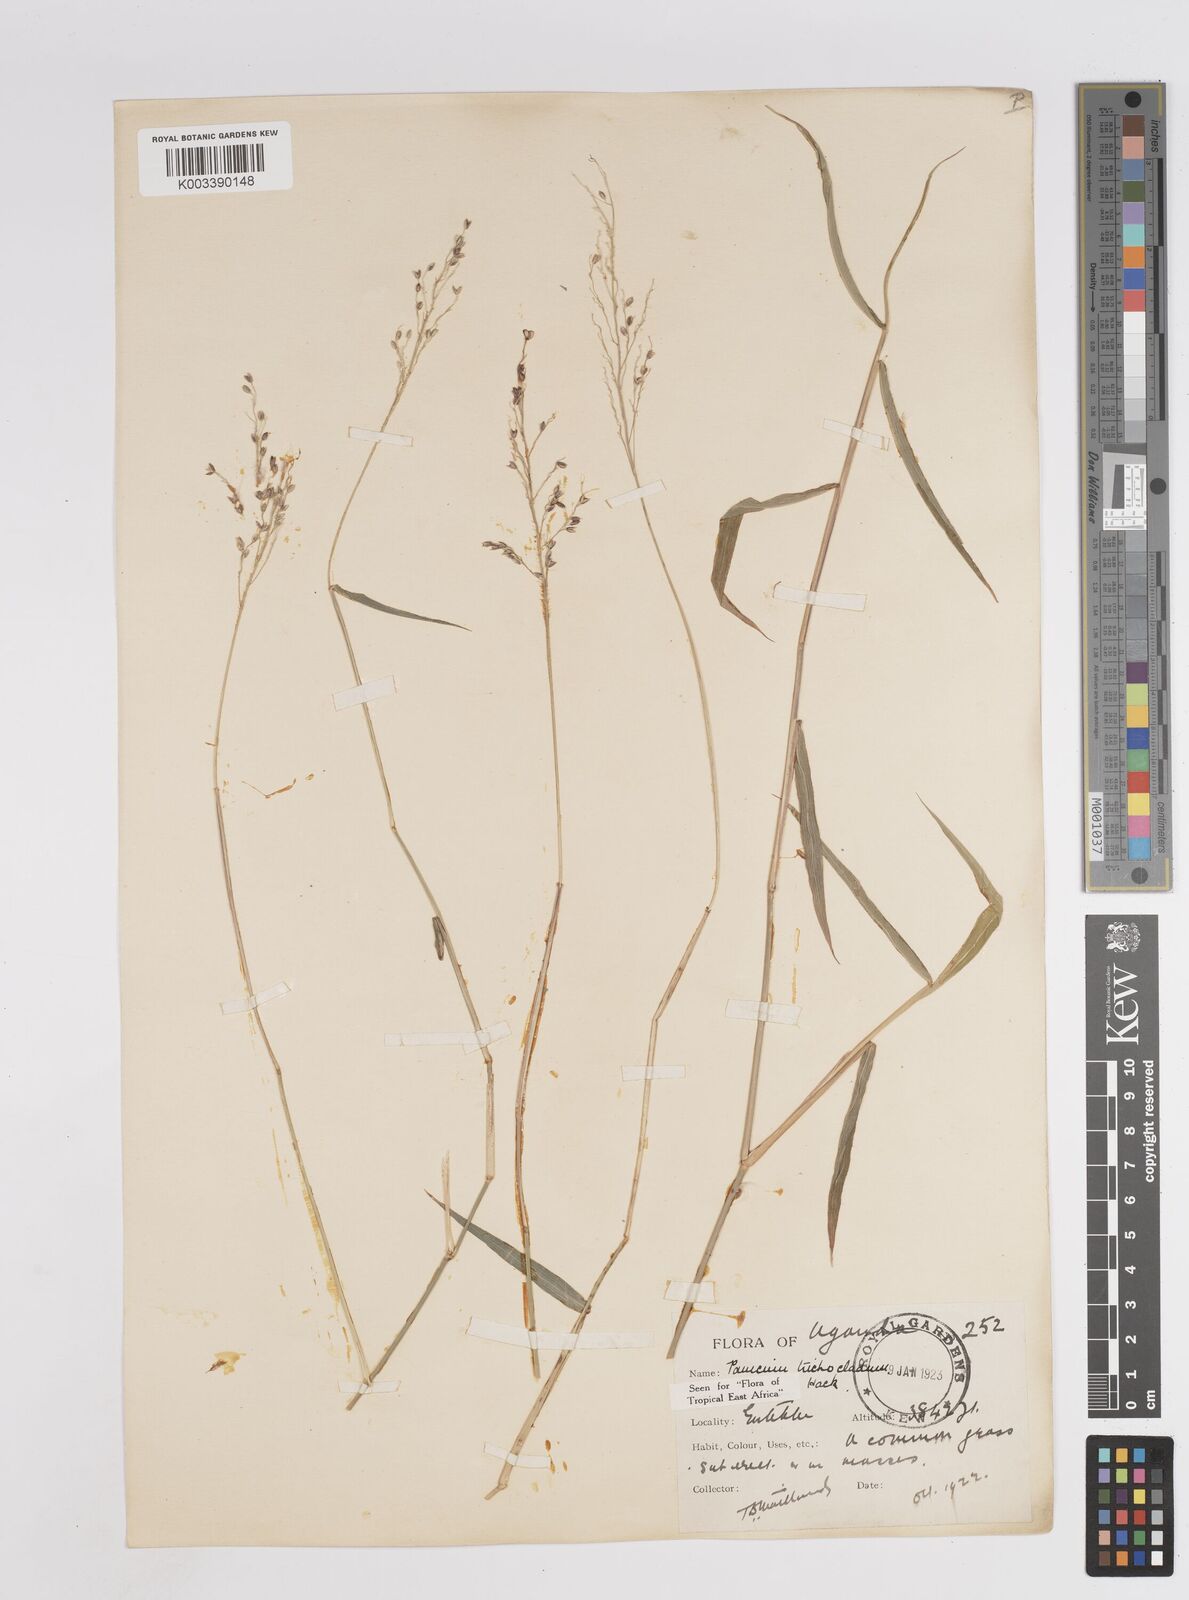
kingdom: Plantae
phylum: Tracheophyta
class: Liliopsida
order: Poales
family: Poaceae
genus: Megathyrsus
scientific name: Megathyrsus maximus
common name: Guineagrass
